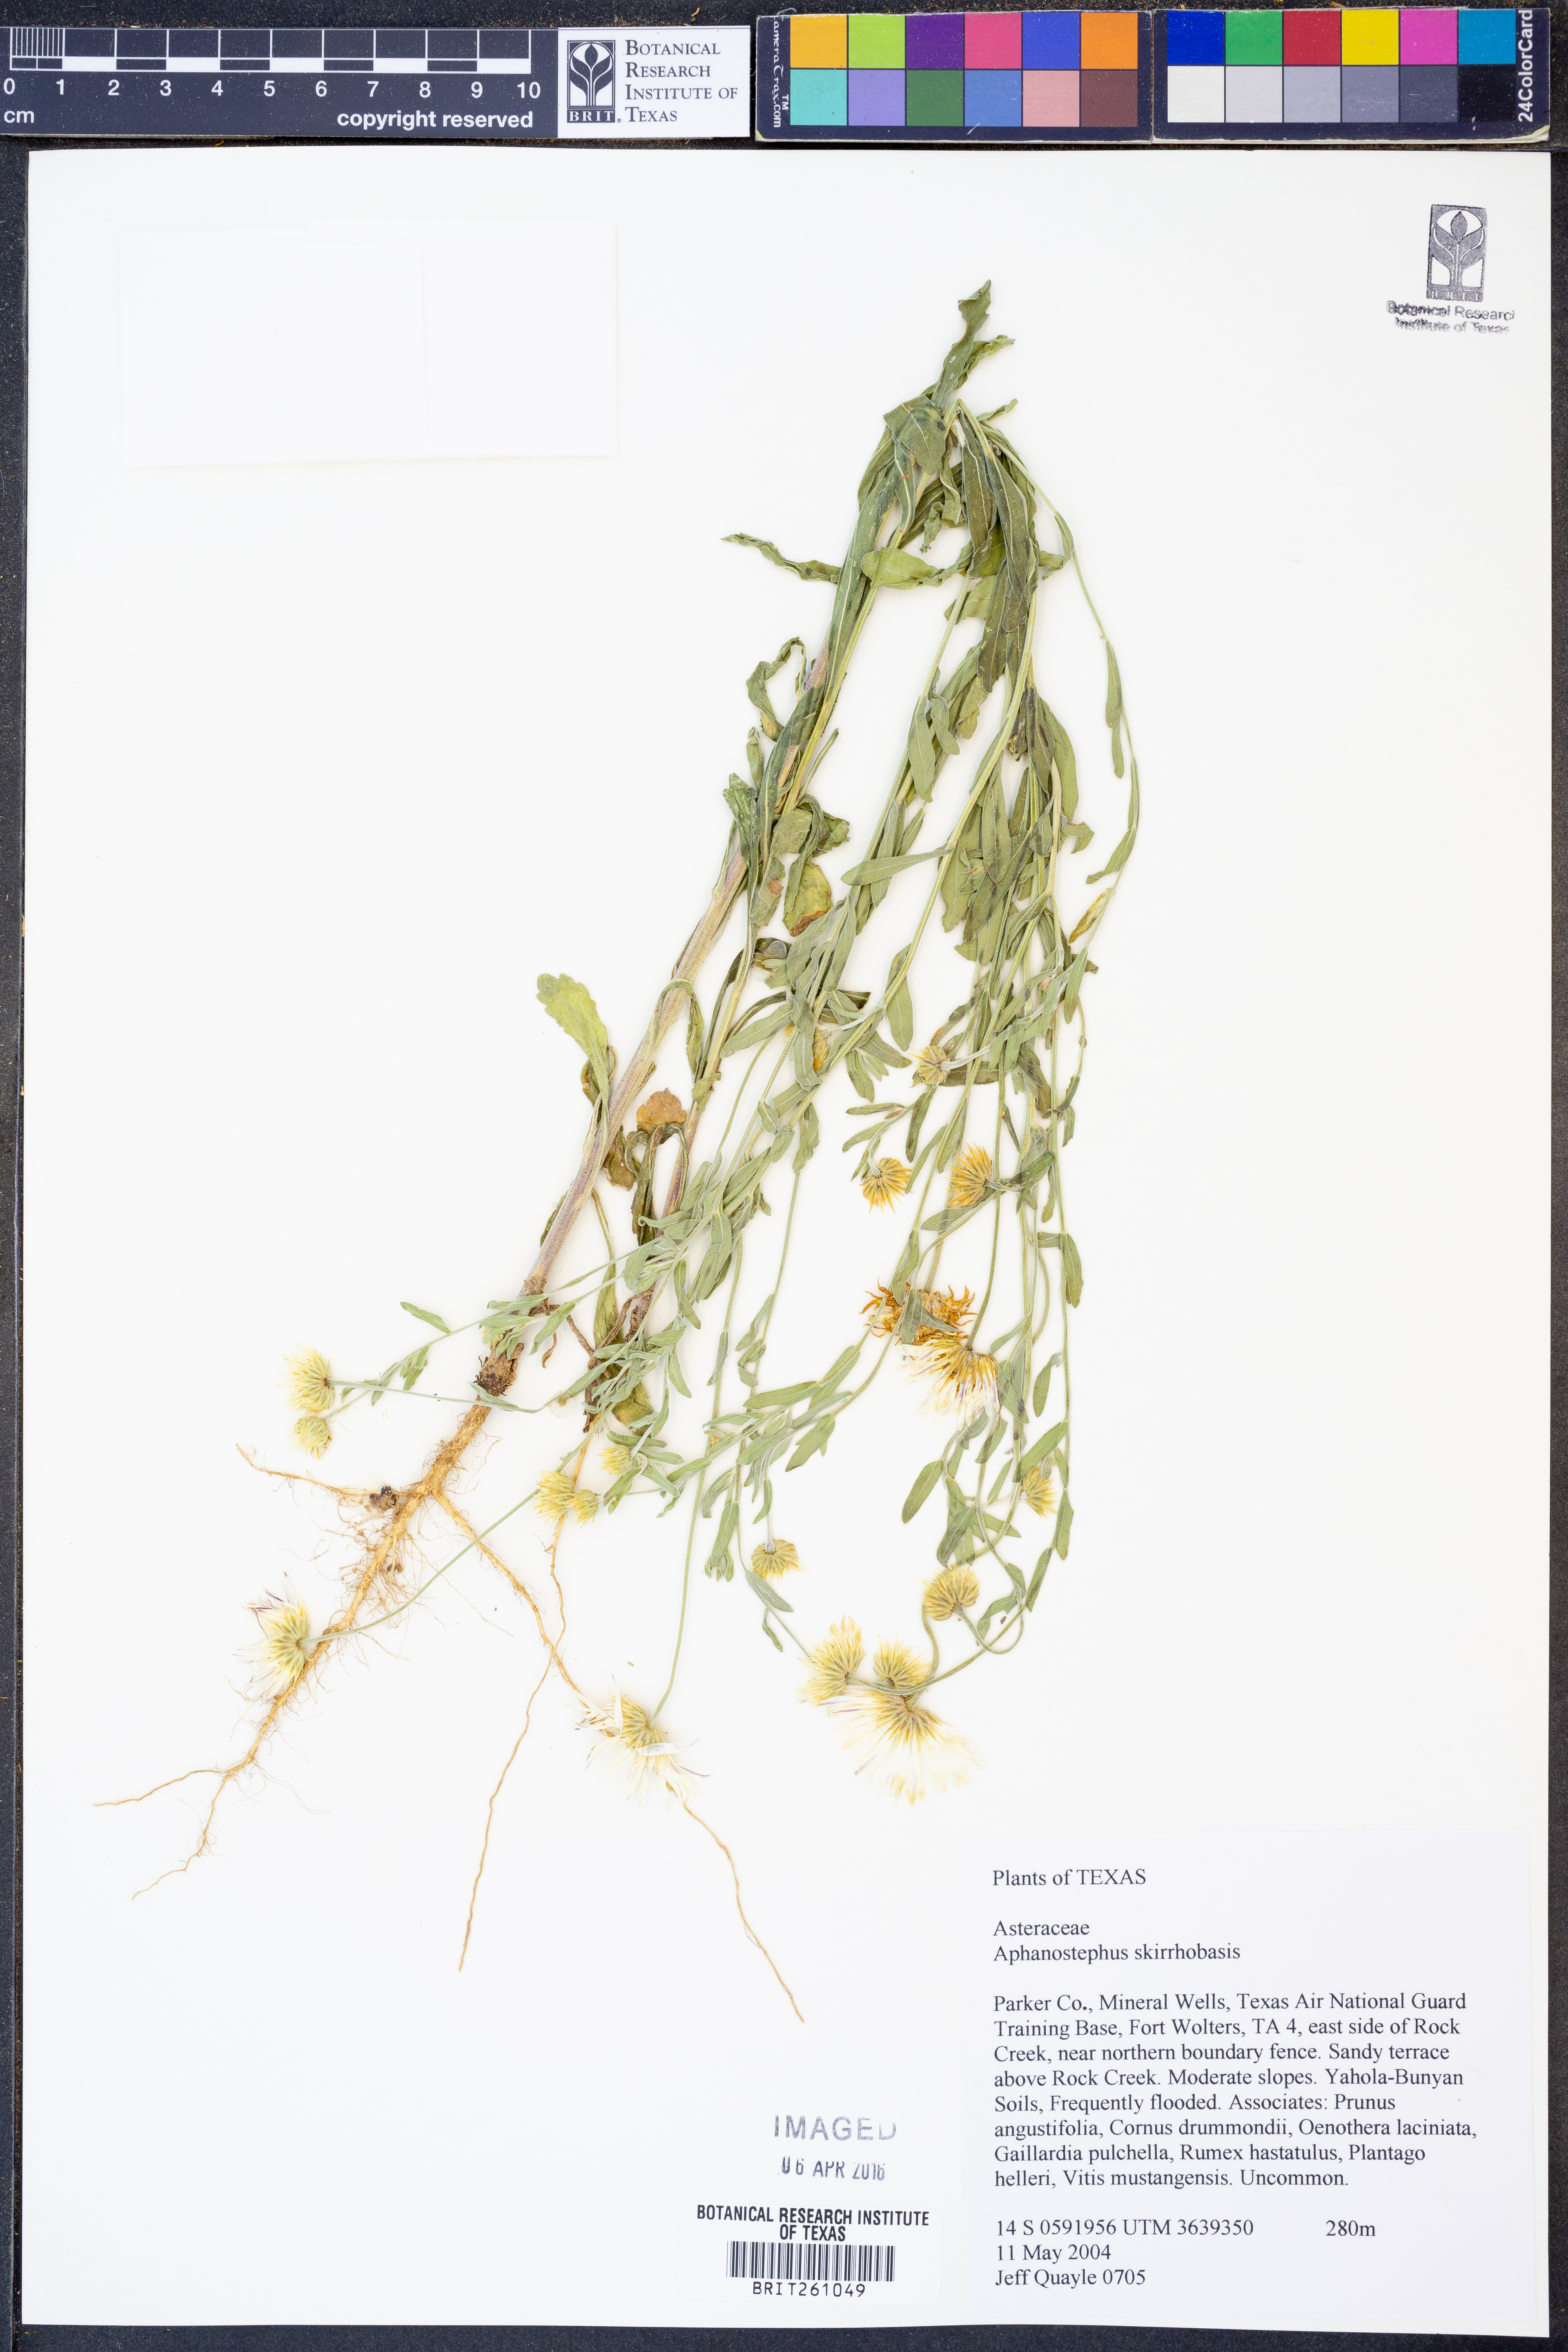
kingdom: Plantae
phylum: Tracheophyta
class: Magnoliopsida
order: Asterales
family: Asteraceae
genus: Aphanostephus
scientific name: Aphanostephus skirrhobasis
